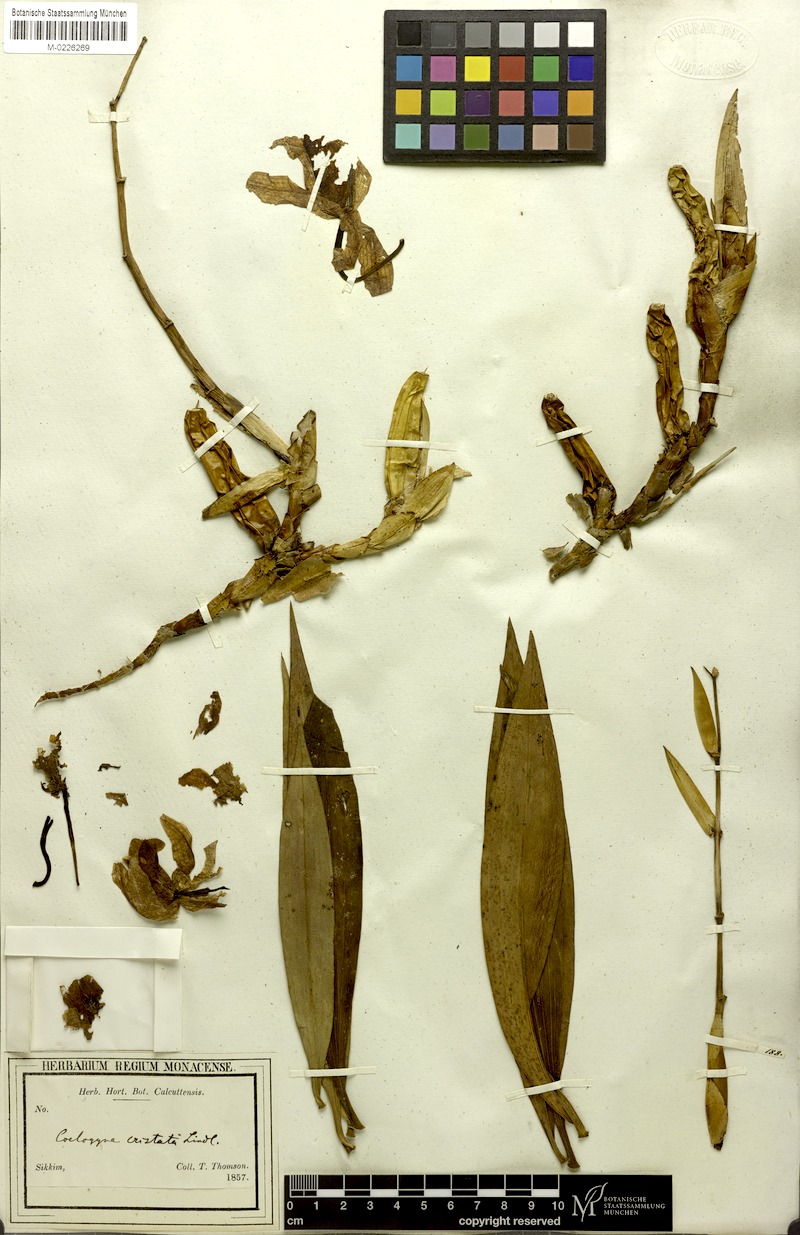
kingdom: Plantae
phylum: Tracheophyta
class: Liliopsida
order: Asparagales
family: Orchidaceae
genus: Coelogyne
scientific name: Coelogyne cristata
